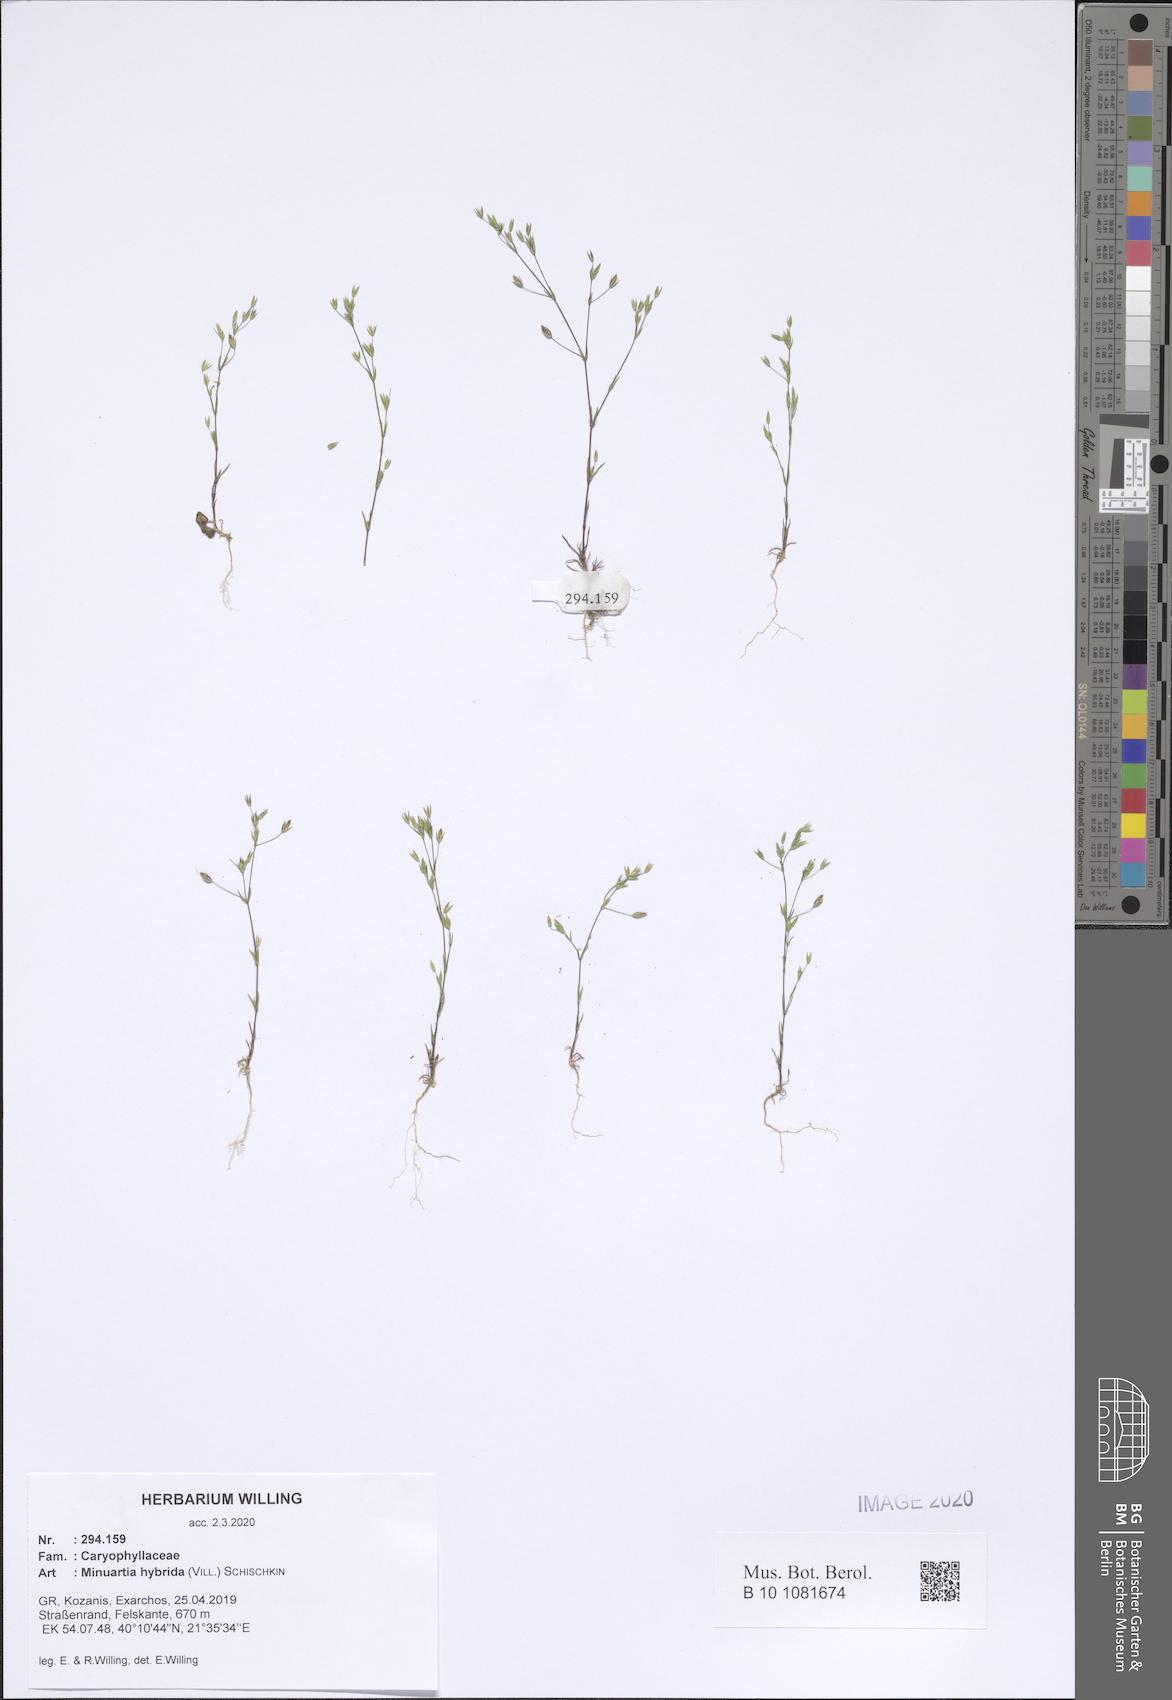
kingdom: Plantae
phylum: Tracheophyta
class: Magnoliopsida
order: Caryophyllales
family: Caryophyllaceae
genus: Sabulina
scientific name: Sabulina tenuifolia
